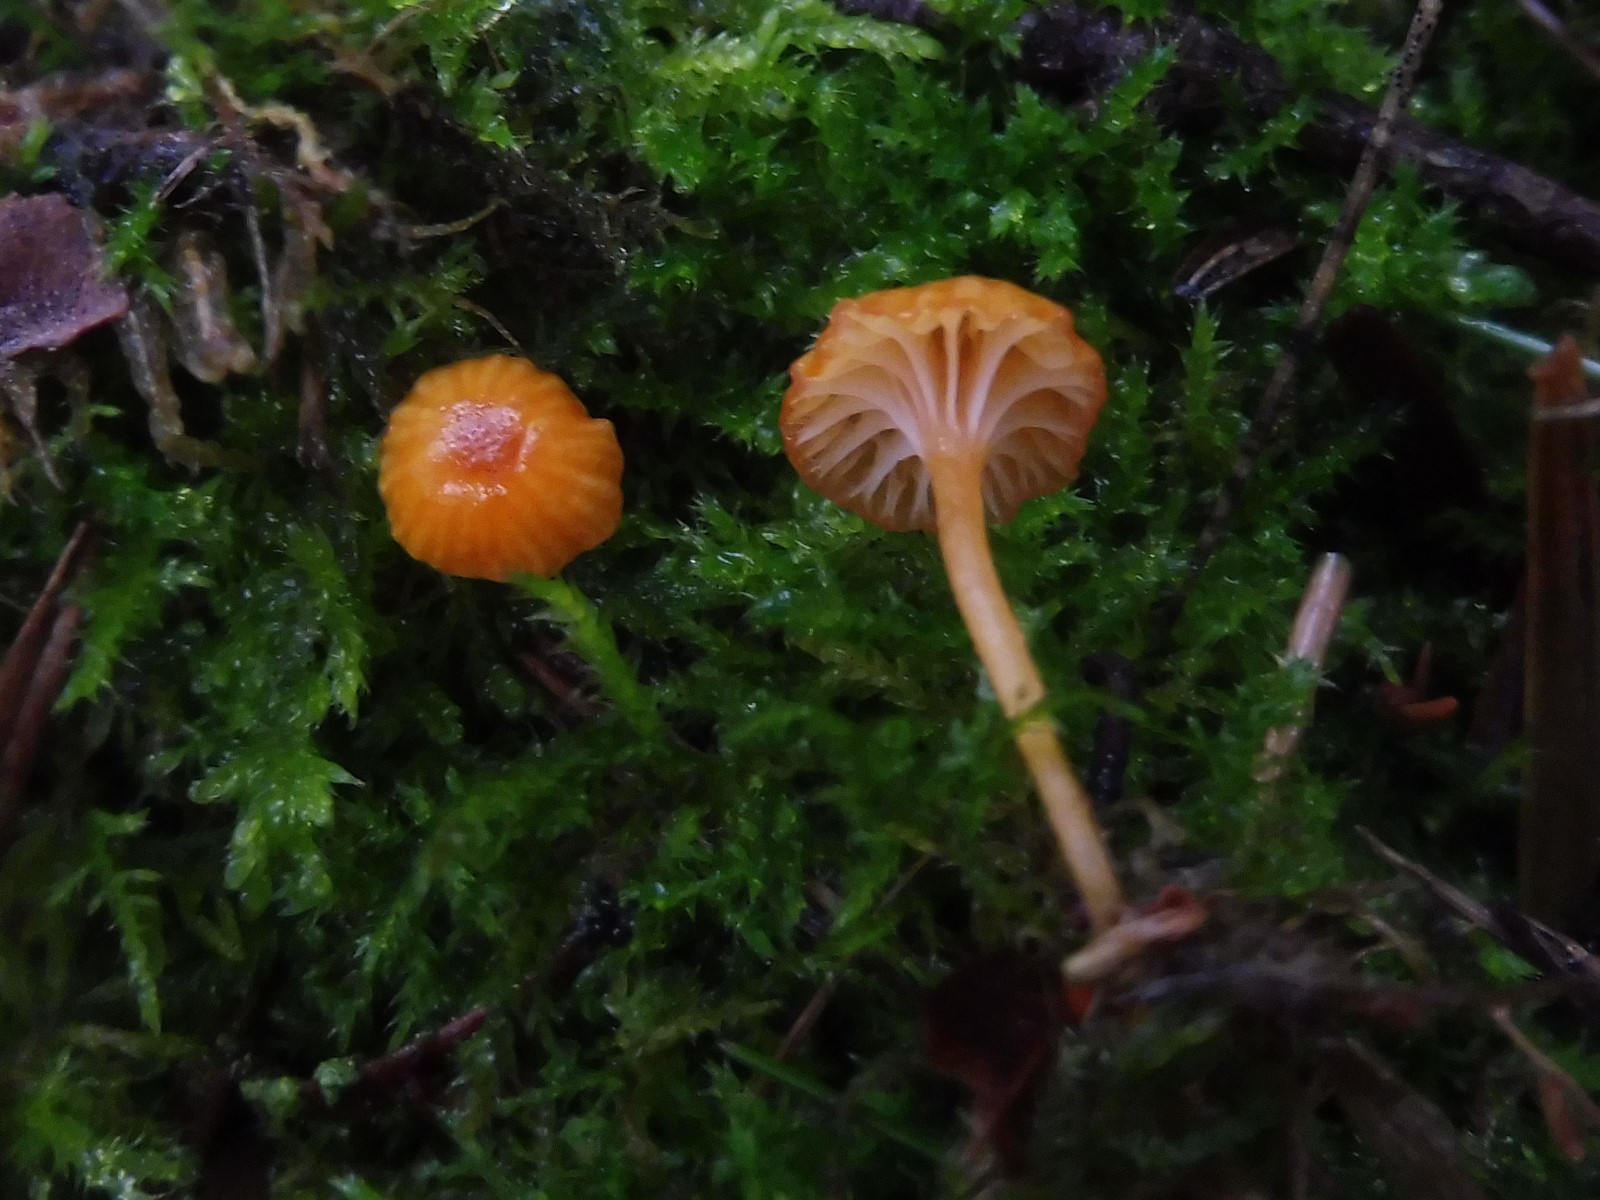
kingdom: Fungi
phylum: Basidiomycota
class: Agaricomycetes
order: Hymenochaetales
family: Rickenellaceae
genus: Rickenella
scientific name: Rickenella fibula
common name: orange mosnavlehat
